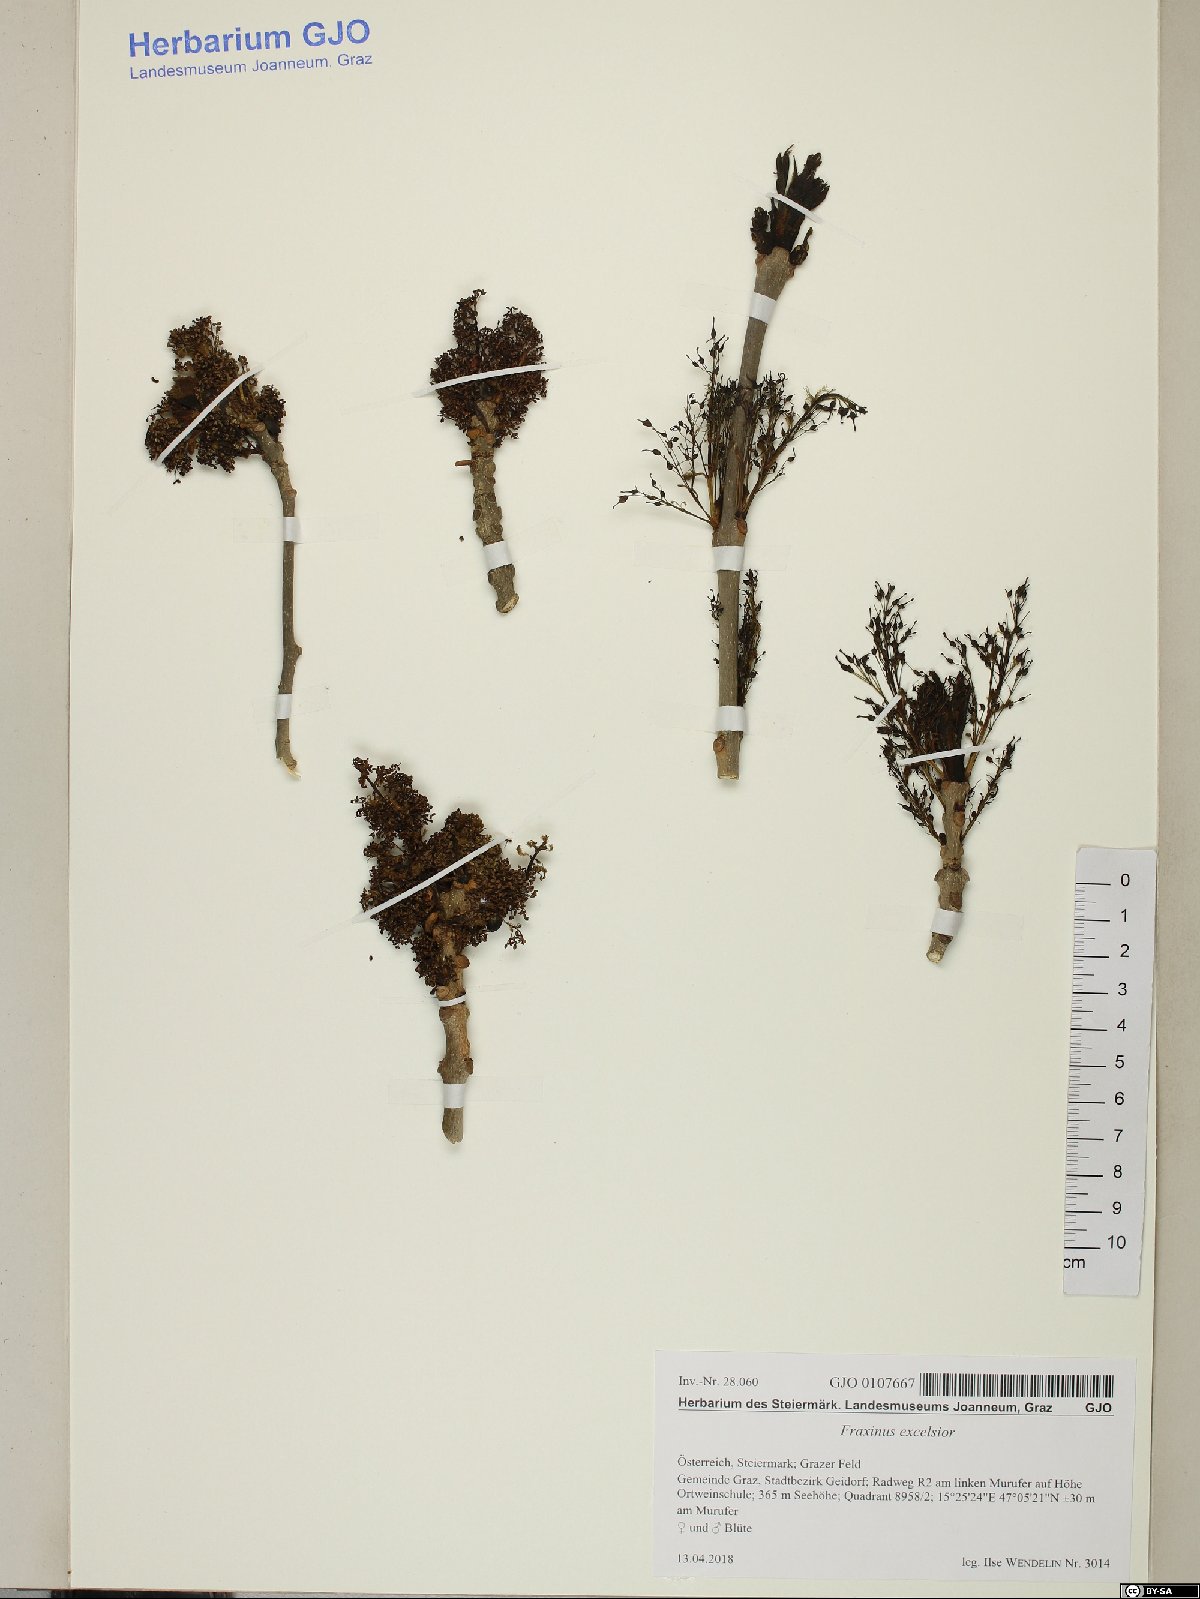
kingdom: Plantae
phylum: Tracheophyta
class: Magnoliopsida
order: Lamiales
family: Oleaceae
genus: Fraxinus
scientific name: Fraxinus excelsior
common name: European ash
